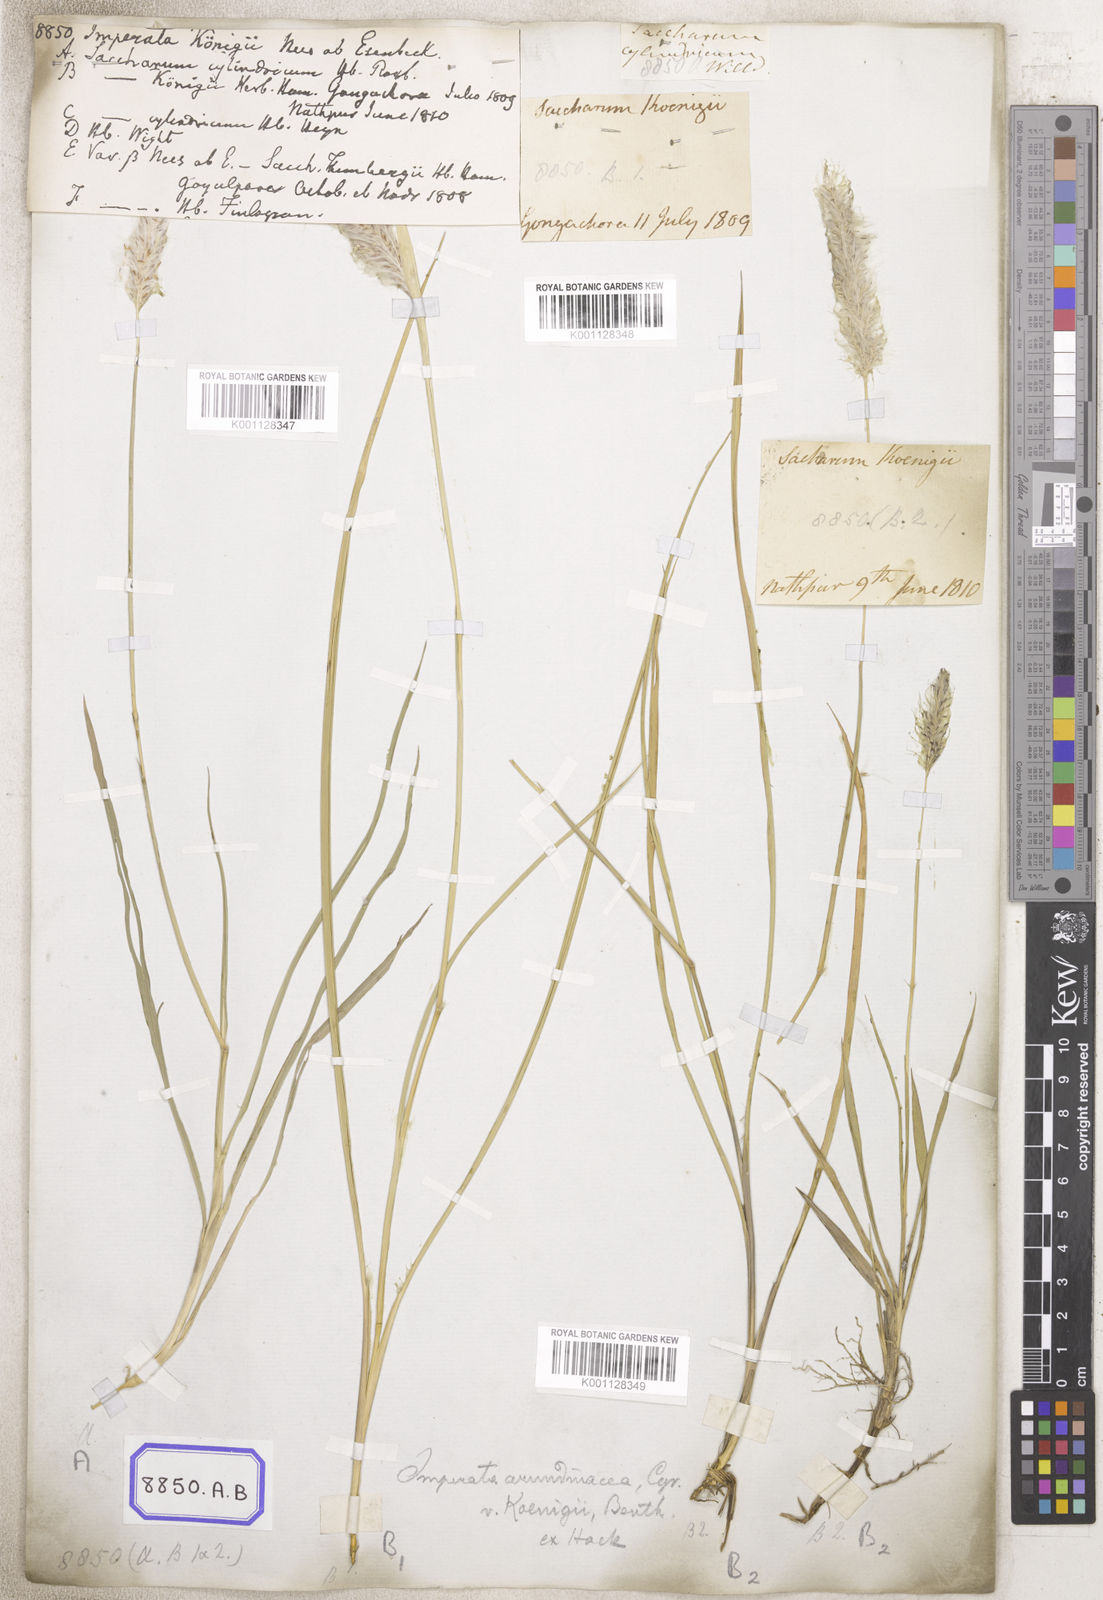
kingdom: Plantae
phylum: Tracheophyta
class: Liliopsida
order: Poales
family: Poaceae
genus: Imperata
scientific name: Imperata cylindrica
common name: Cogongrass
